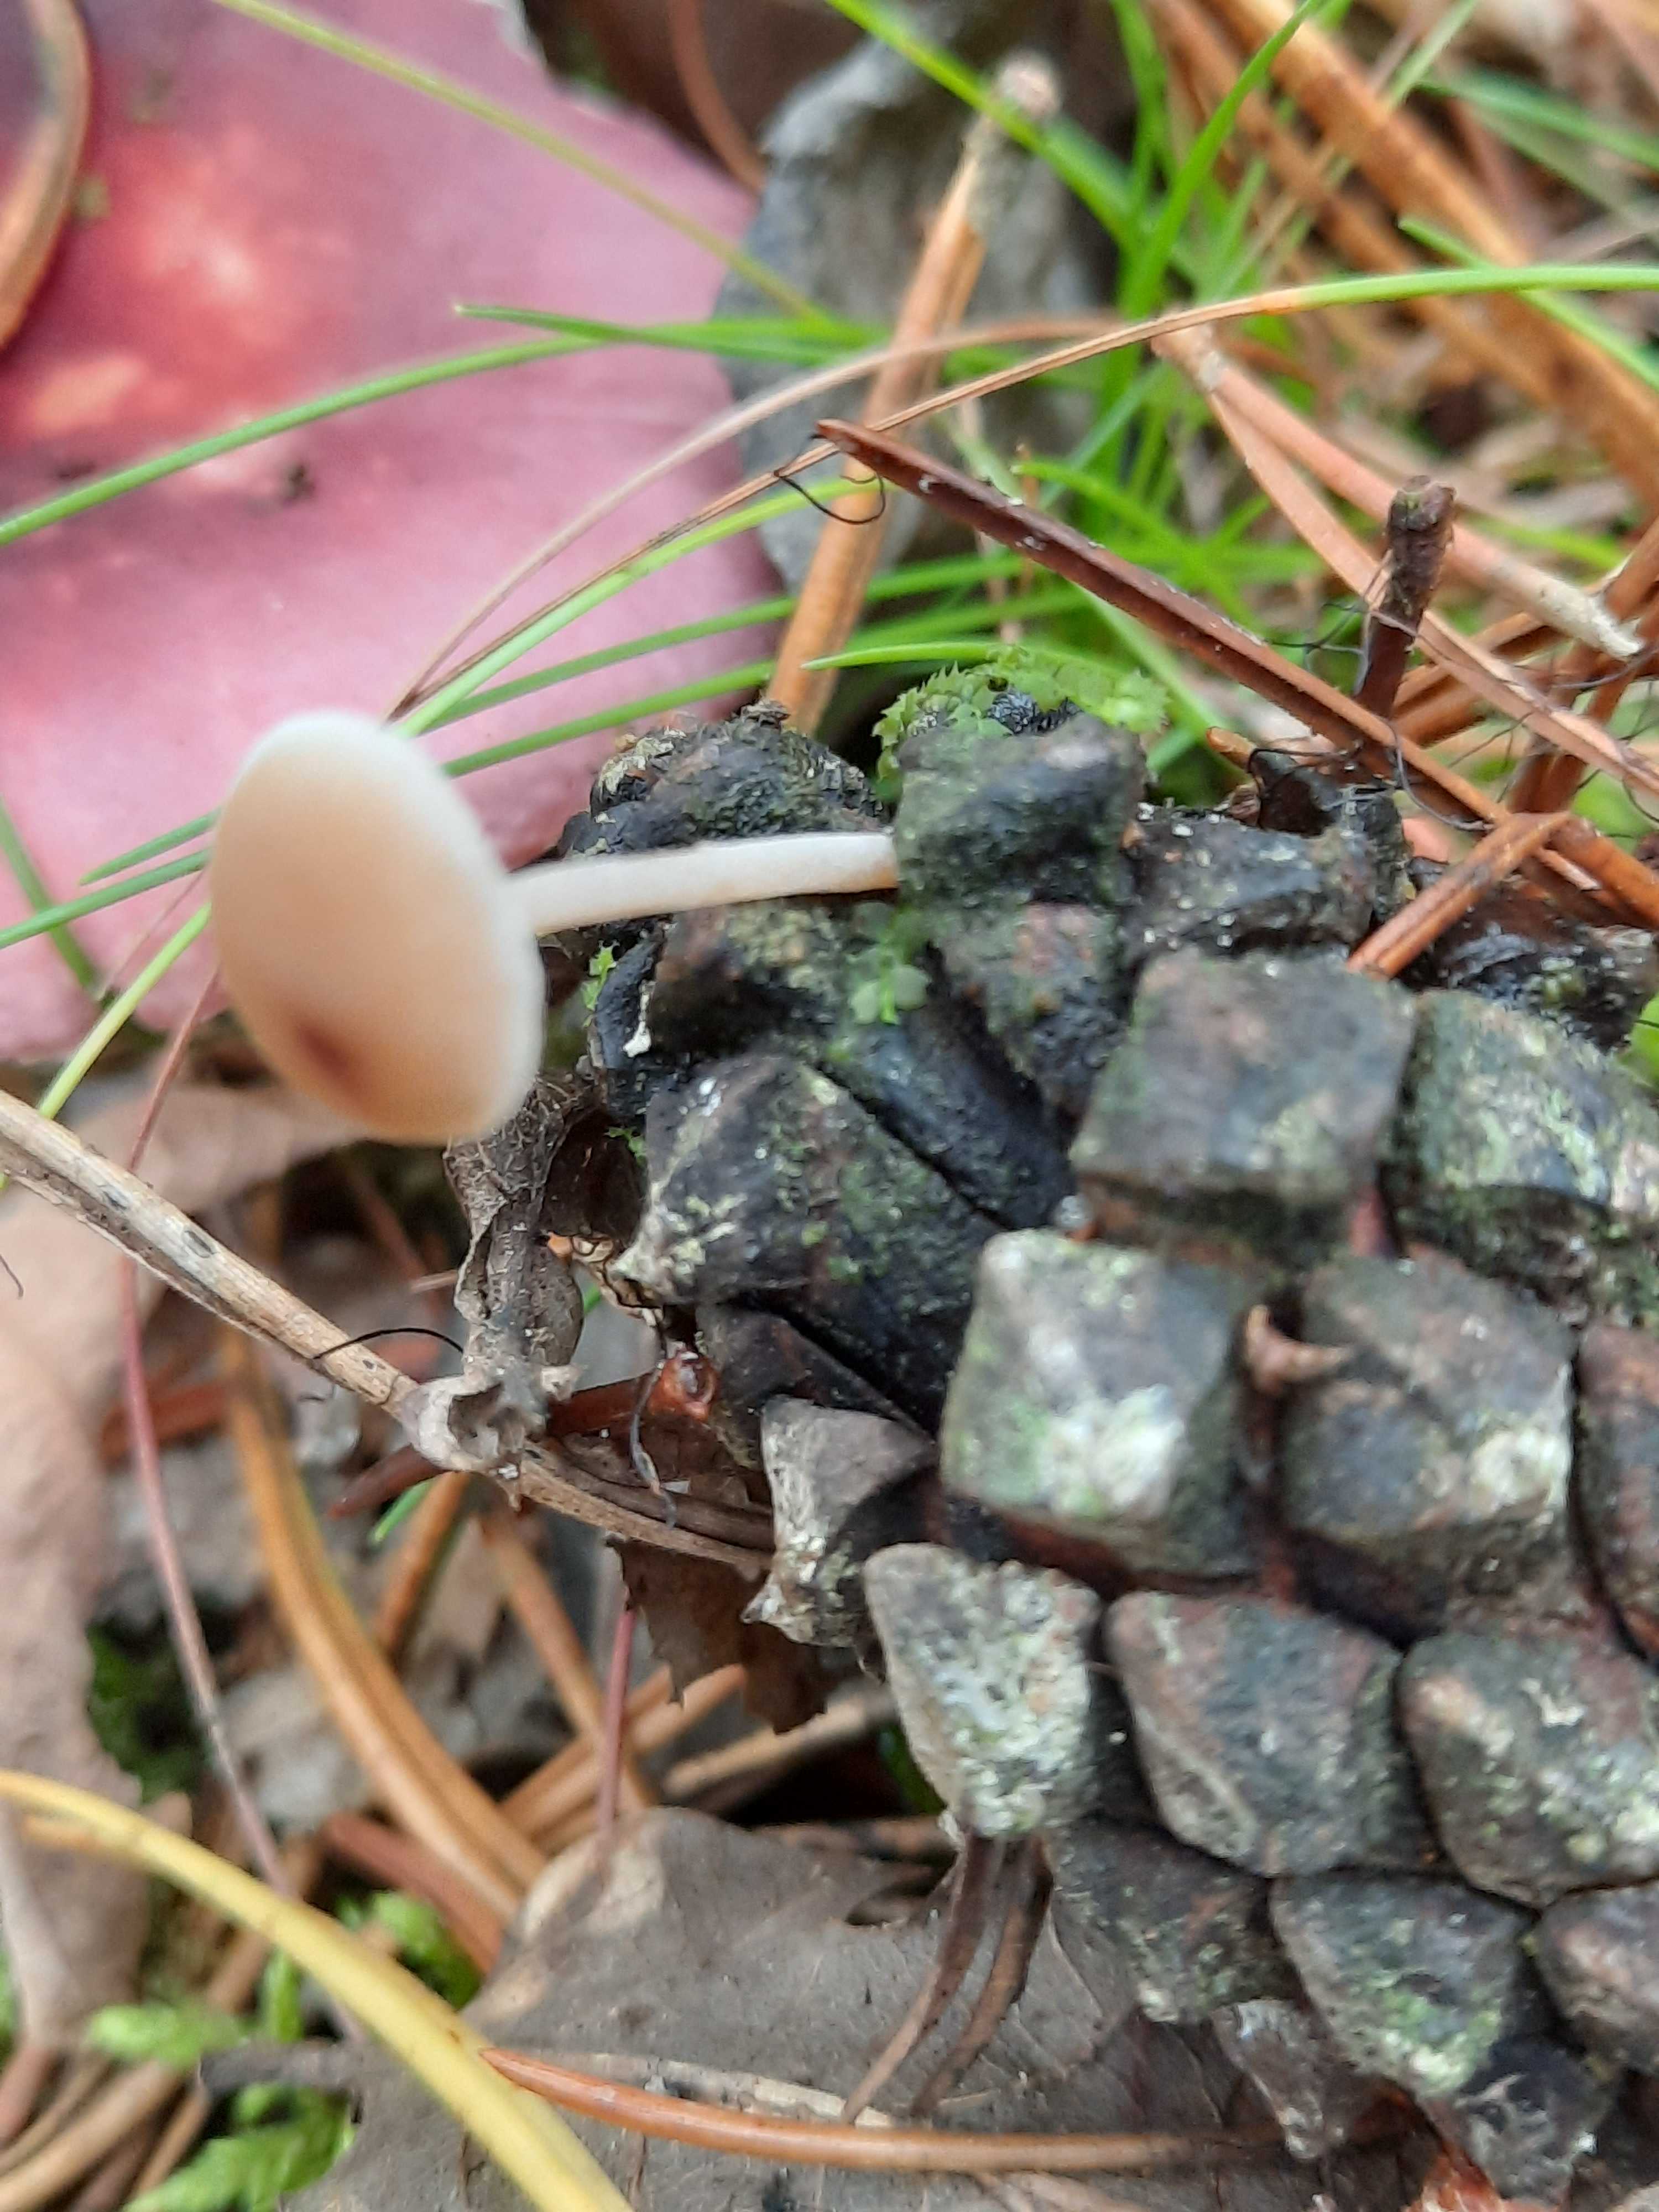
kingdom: Fungi
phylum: Basidiomycota
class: Agaricomycetes
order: Agaricales
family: Marasmiaceae
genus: Baeospora
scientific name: Baeospora myosura
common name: koglebruskhat
